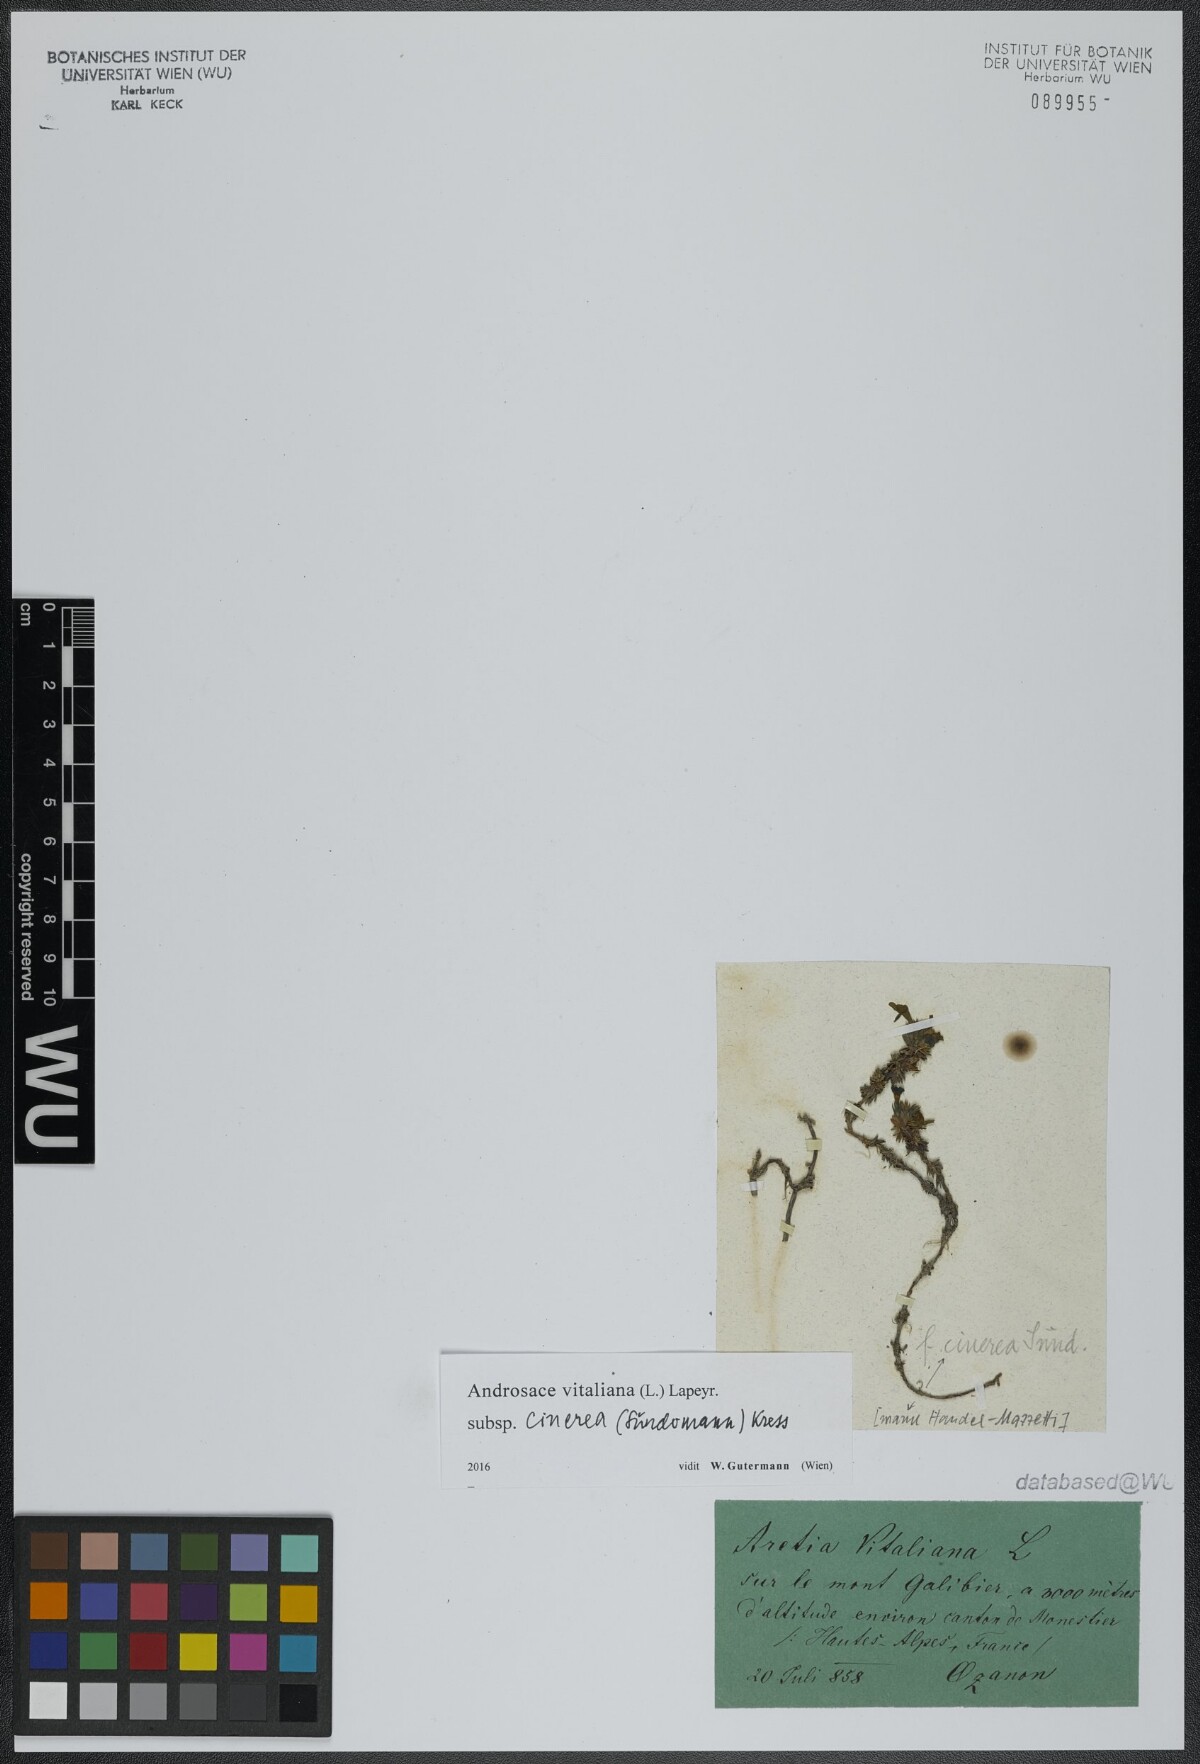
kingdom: Plantae
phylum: Tracheophyta
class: Magnoliopsida
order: Brassicales
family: Brassicaceae
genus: Cardamine
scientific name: Cardamine bellidifolia
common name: Alpine bittercress
